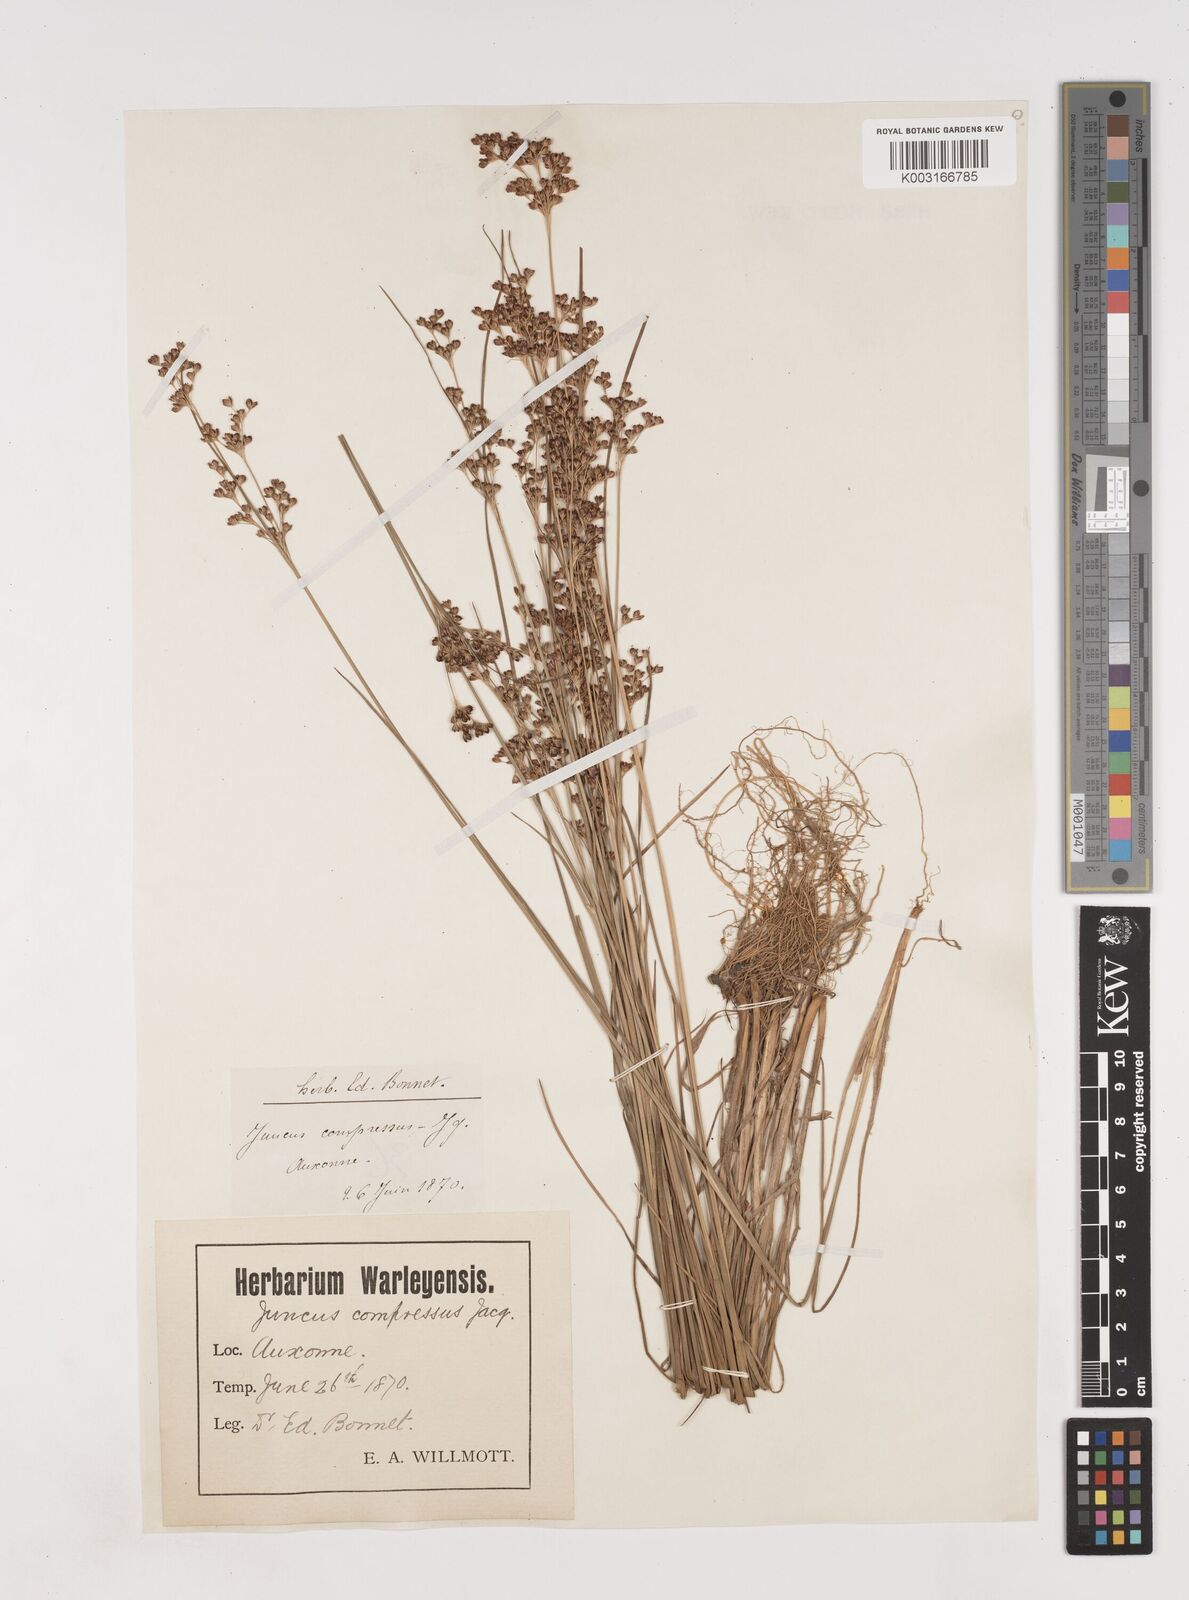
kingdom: Plantae
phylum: Tracheophyta
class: Liliopsida
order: Poales
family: Juncaceae
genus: Juncus
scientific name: Juncus compressus
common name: Round-fruited rush
